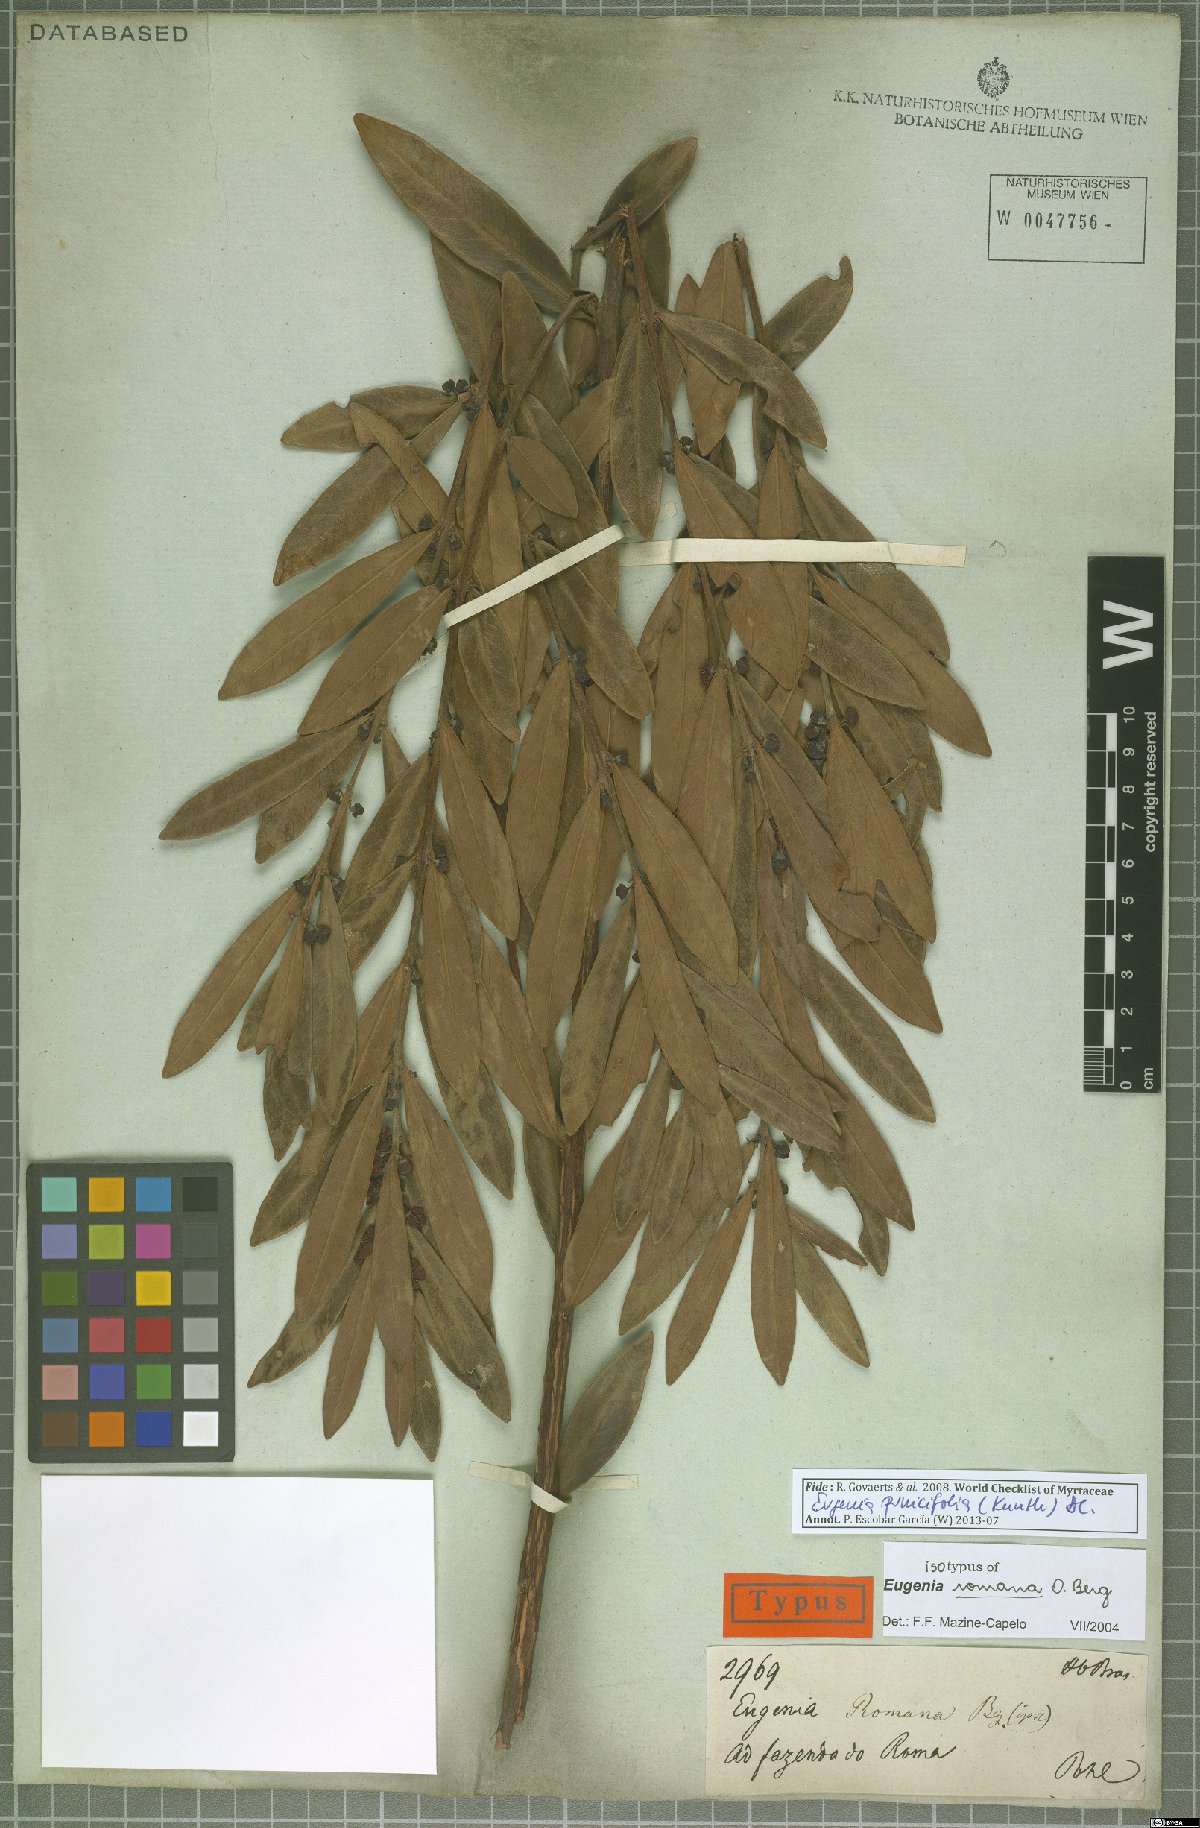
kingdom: Plantae
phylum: Tracheophyta
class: Magnoliopsida
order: Myrtales
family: Myrtaceae
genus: Eugenia
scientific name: Eugenia punicifolia
